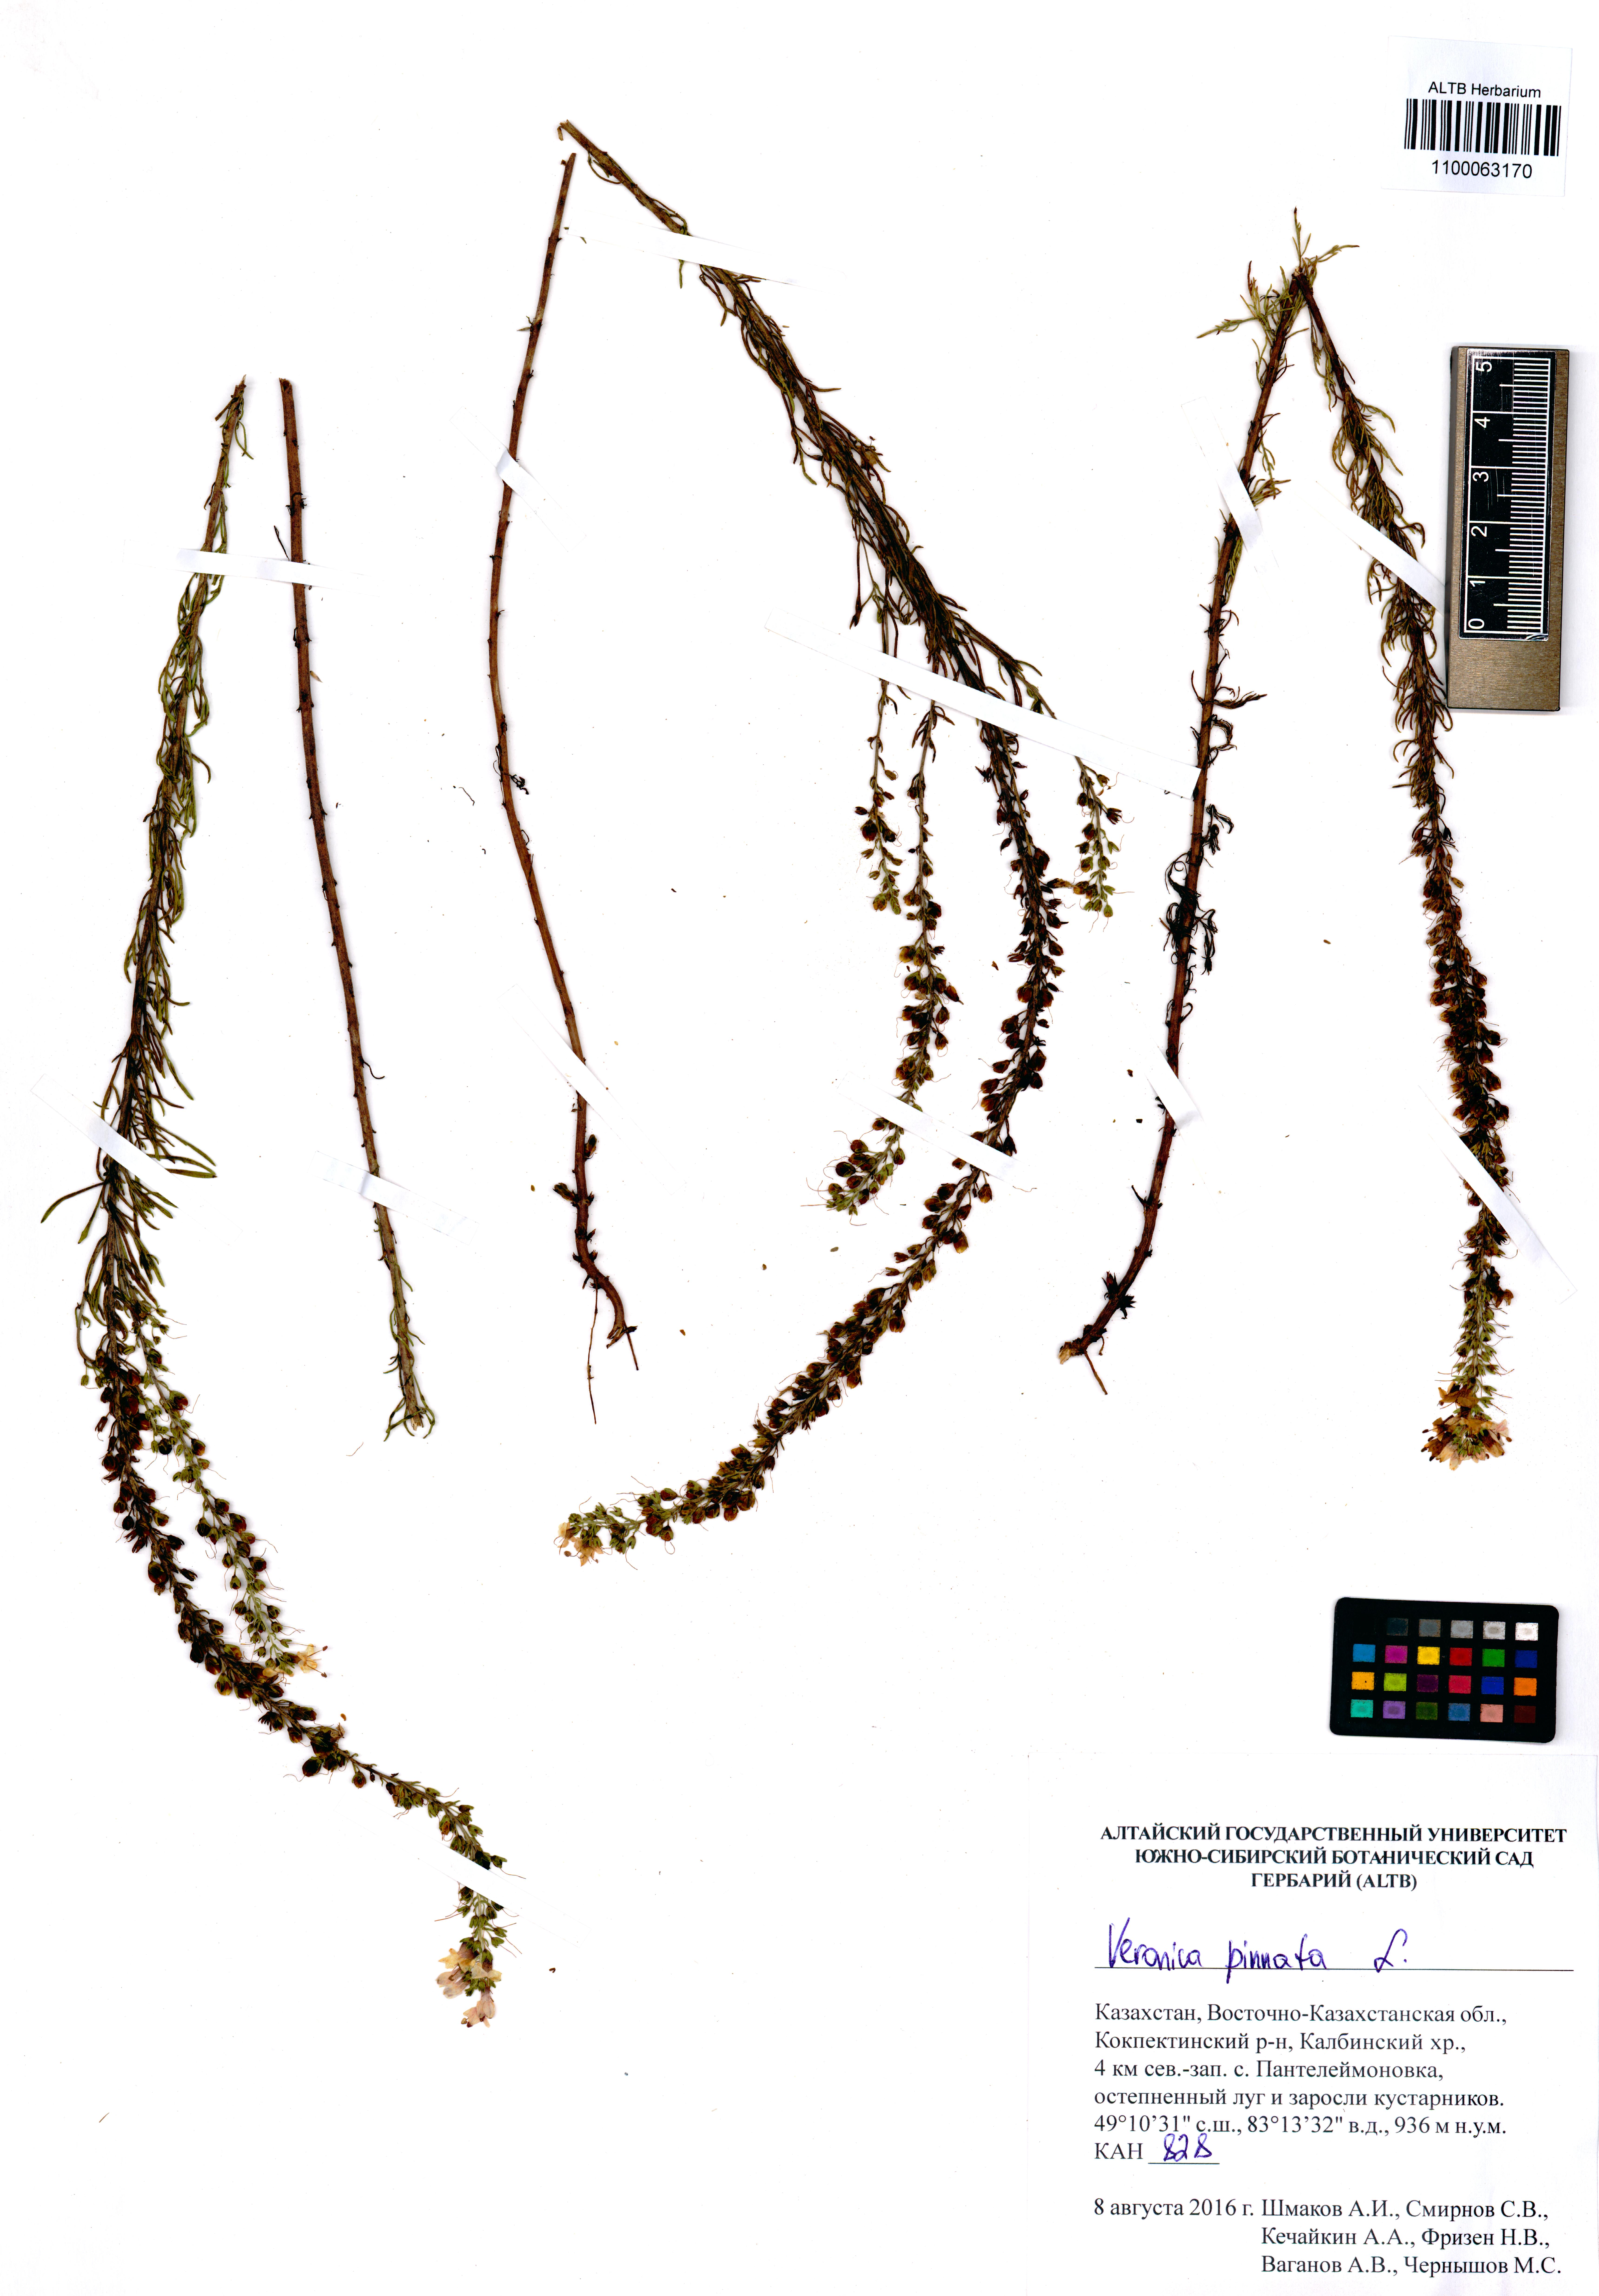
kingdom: Plantae
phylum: Tracheophyta
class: Magnoliopsida
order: Lamiales
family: Plantaginaceae
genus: Veronica
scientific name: Veronica pinnata
